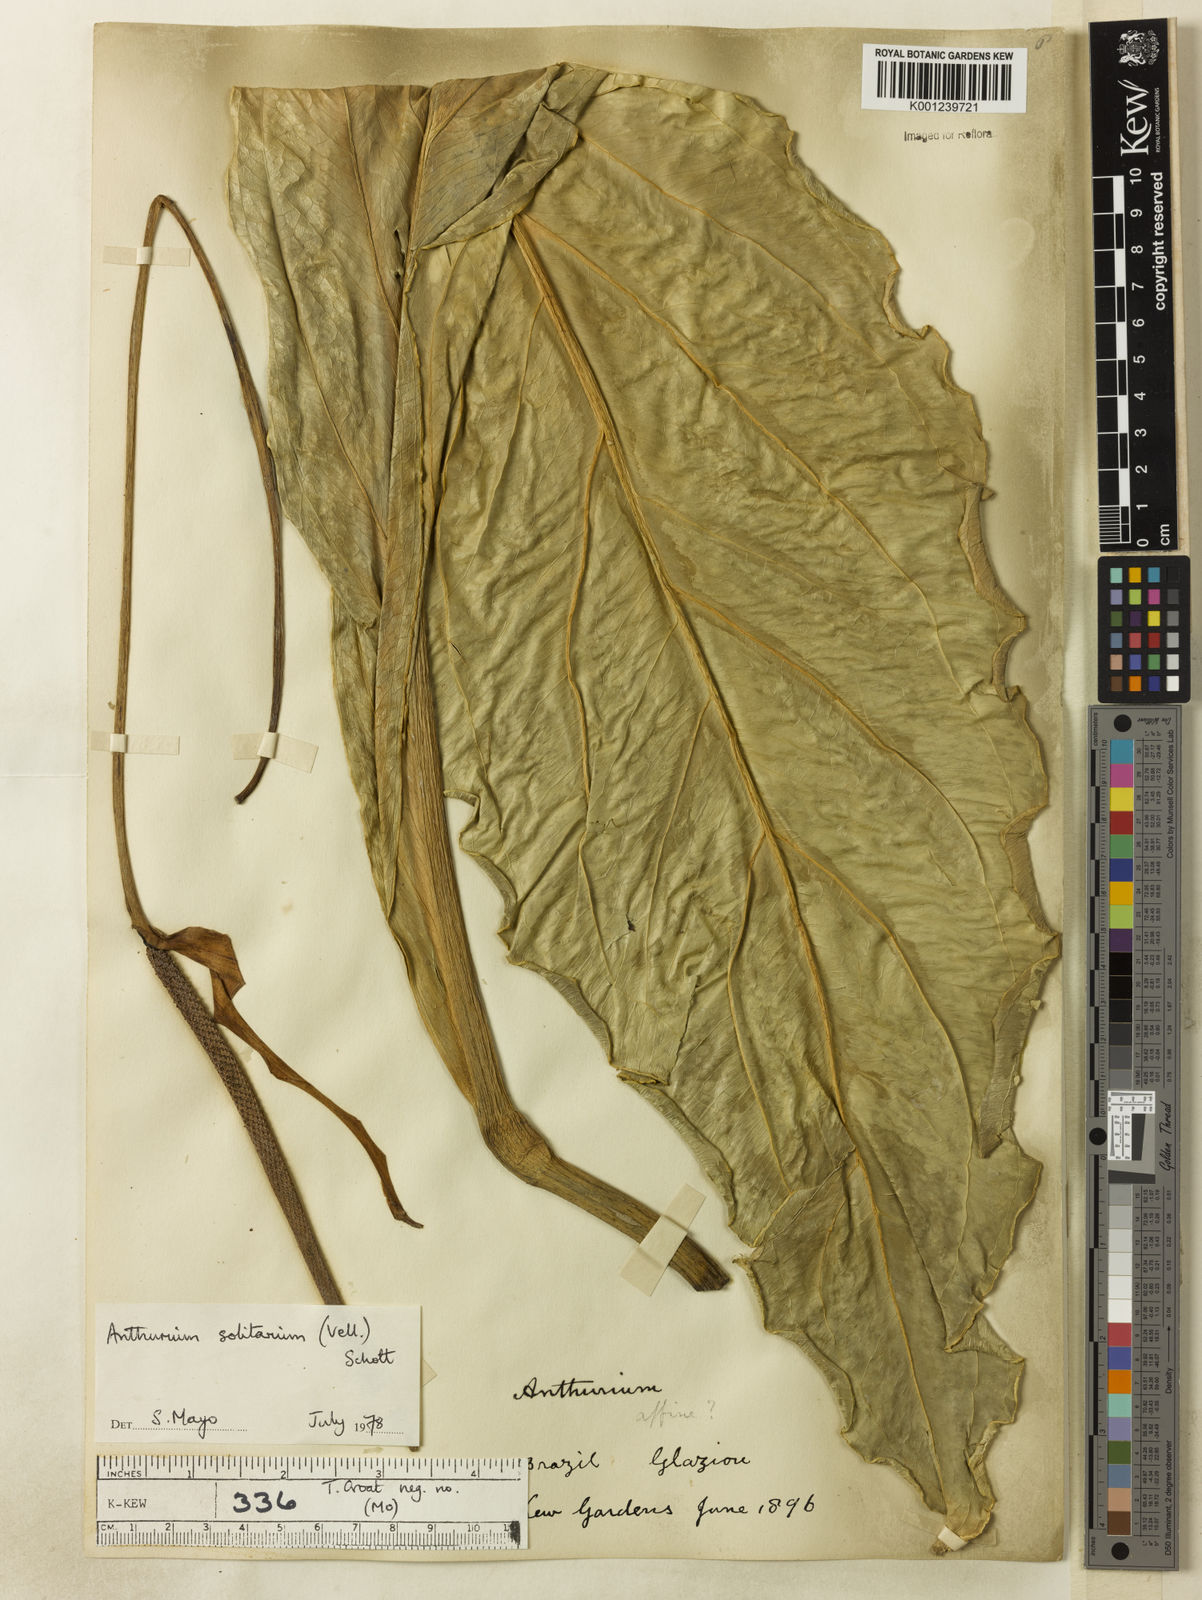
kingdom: Plantae
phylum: Tracheophyta
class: Liliopsida
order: Alismatales
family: Araceae
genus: Anthurium
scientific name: Anthurium solitarium
